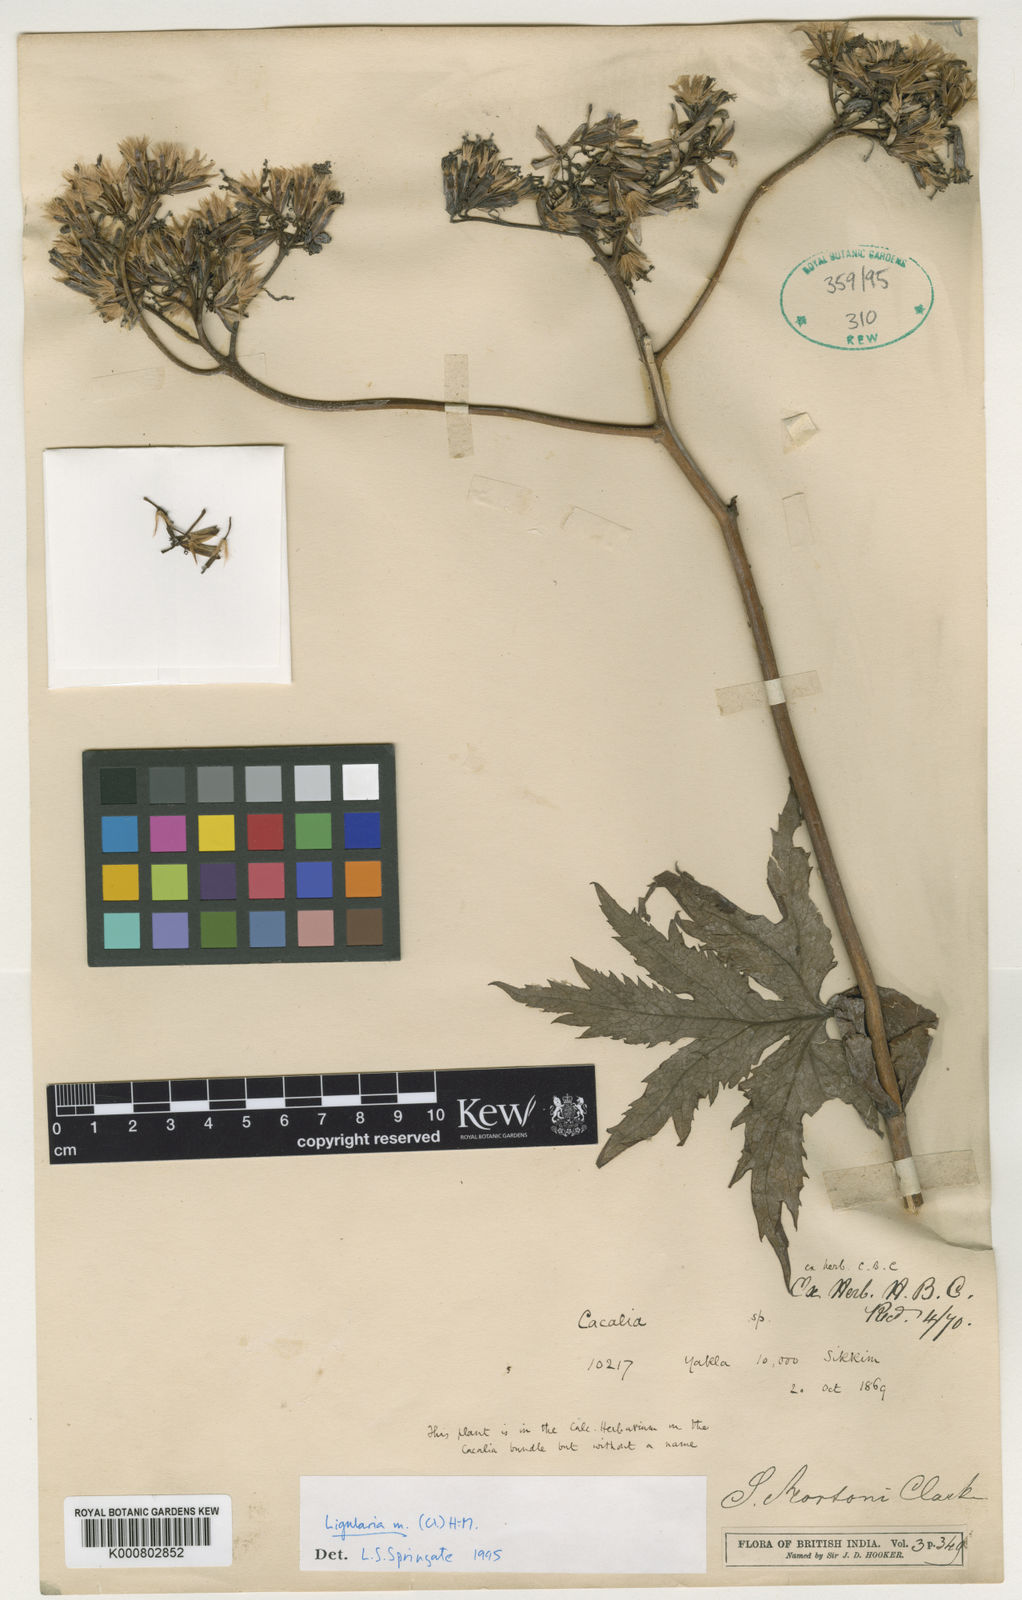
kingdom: Plantae
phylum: Tracheophyta
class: Magnoliopsida
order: Asterales
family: Asteraceae
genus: Ligularia
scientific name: Ligularia mortonii
